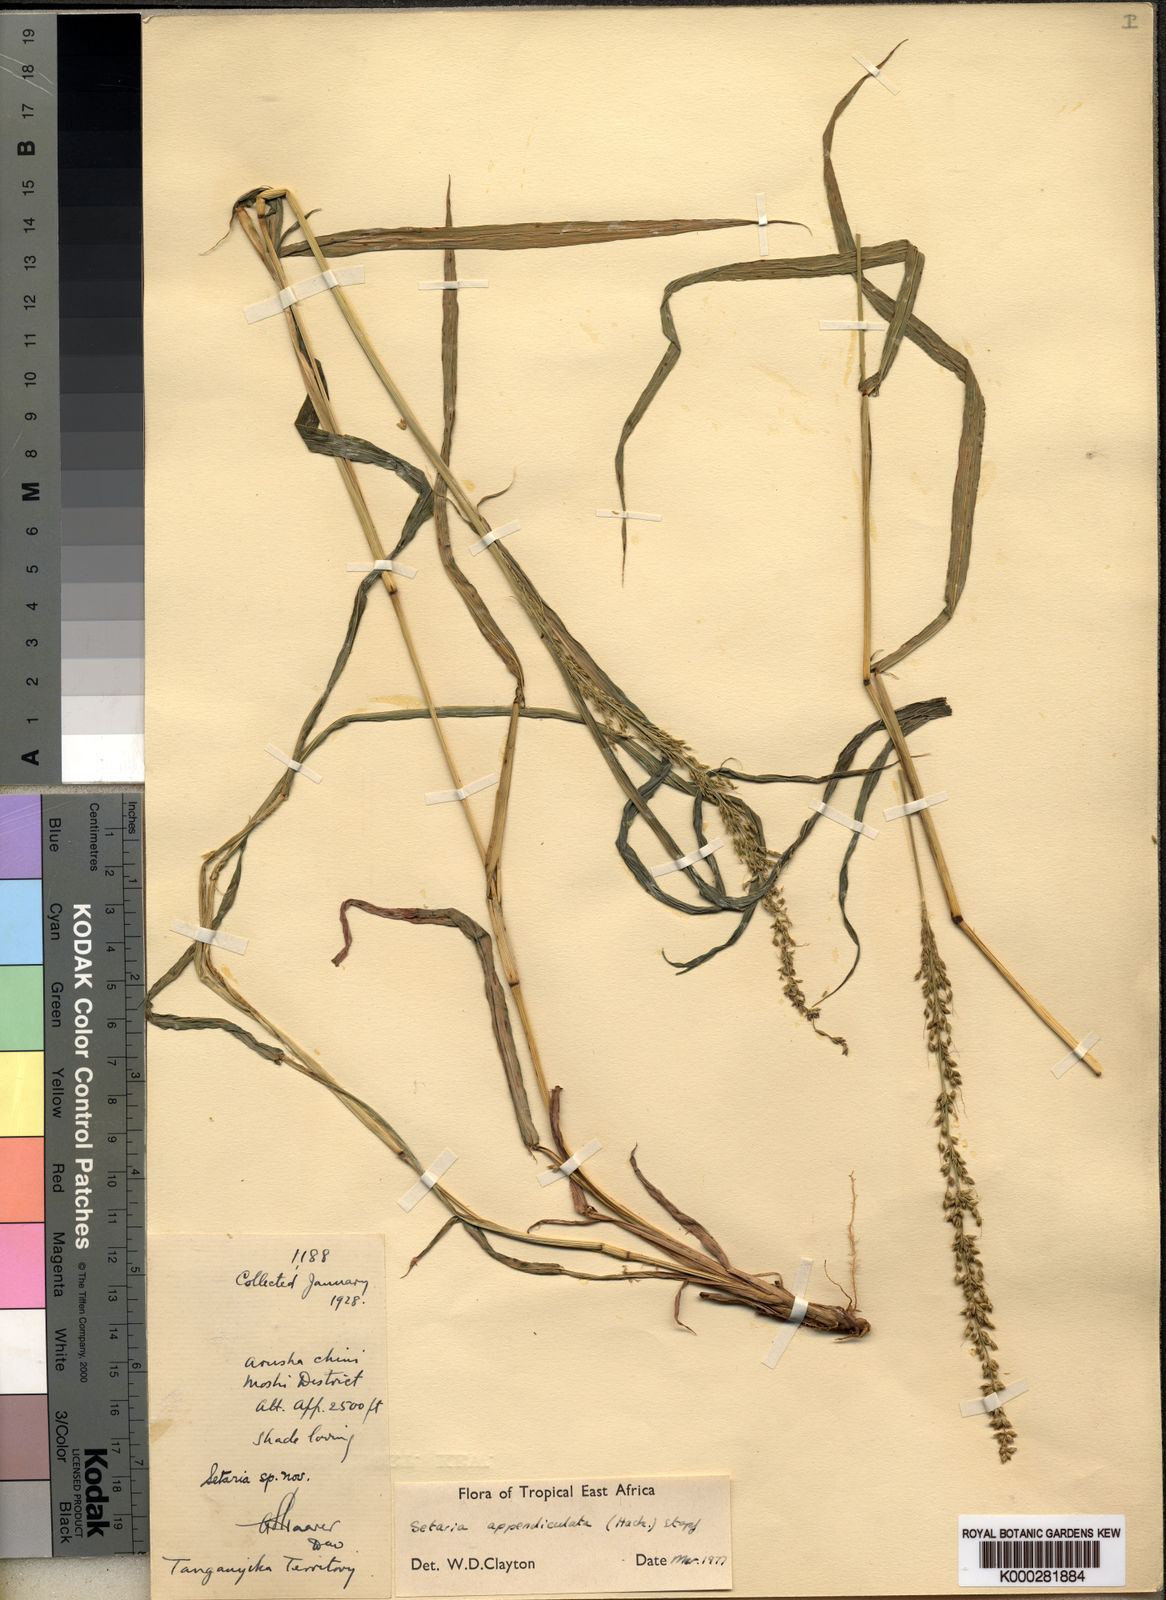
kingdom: Plantae
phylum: Tracheophyta
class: Liliopsida
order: Poales
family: Poaceae
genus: Setaria
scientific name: Setaria appendiculata
